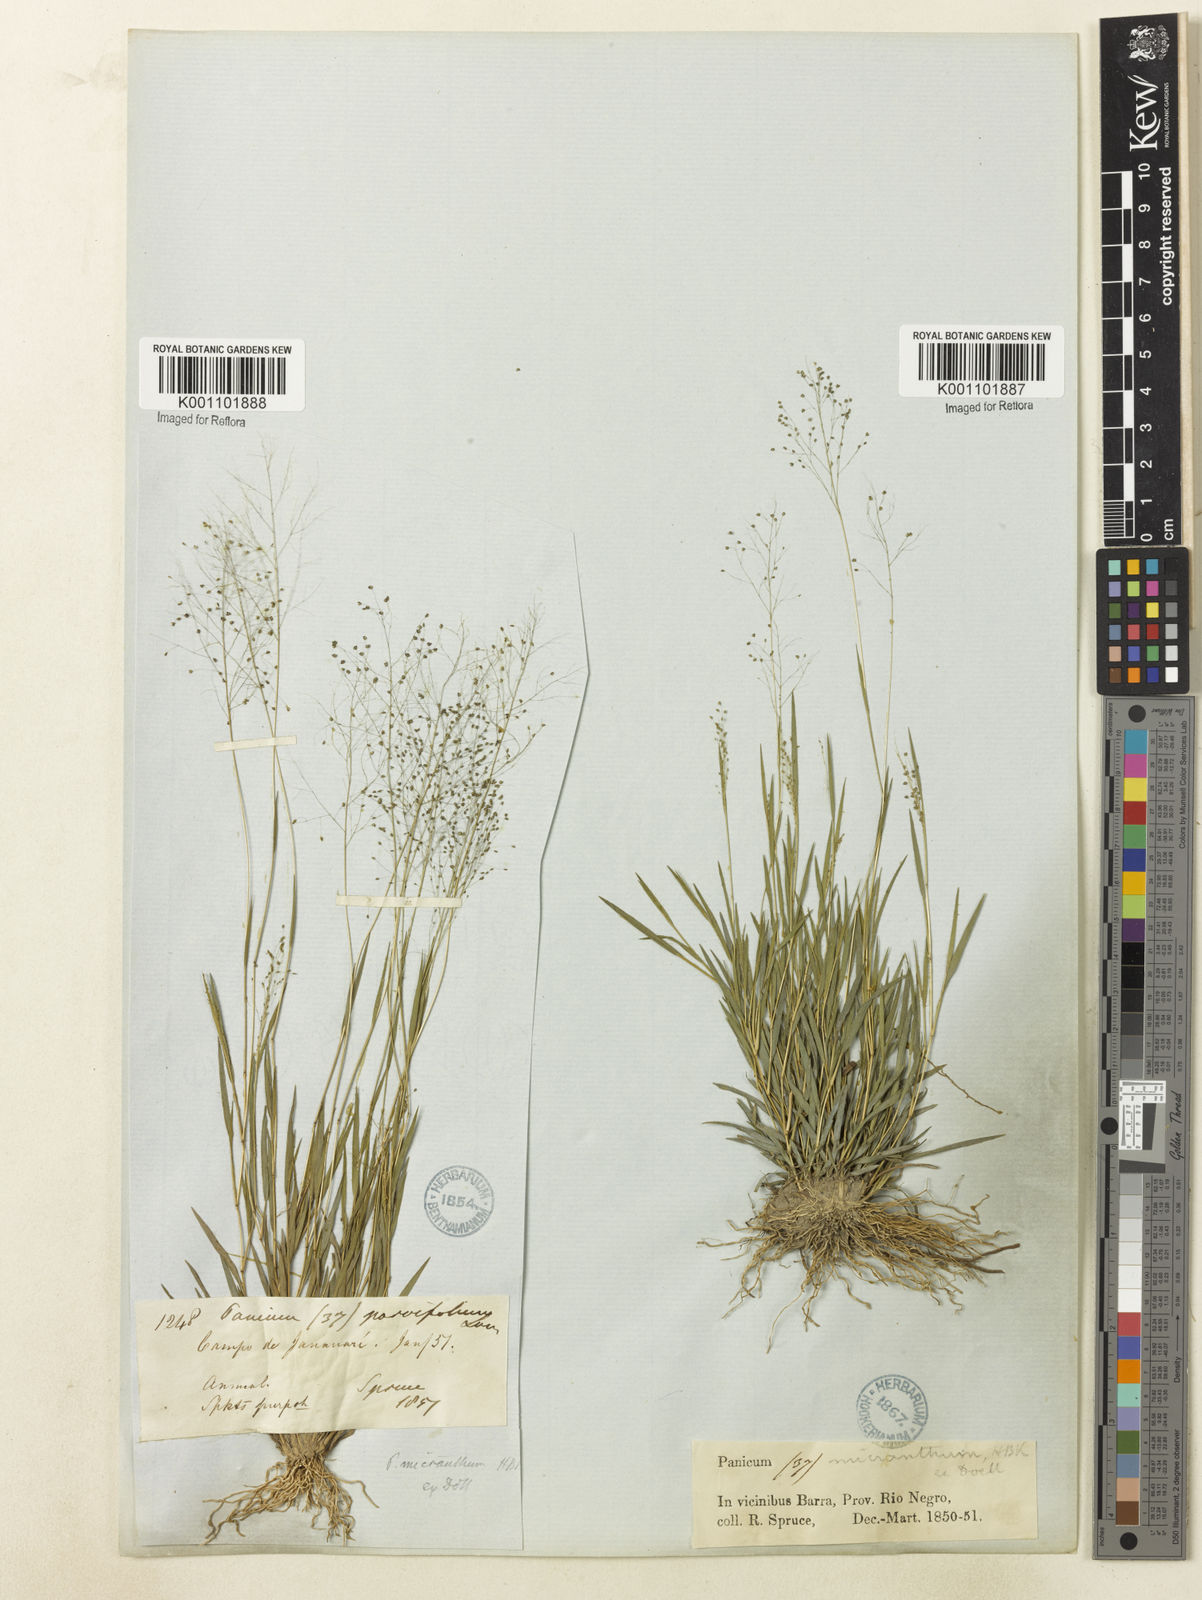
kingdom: Plantae
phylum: Tracheophyta
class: Liliopsida
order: Poales
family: Poaceae
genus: Trichanthecium
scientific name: Trichanthecium micranthum
